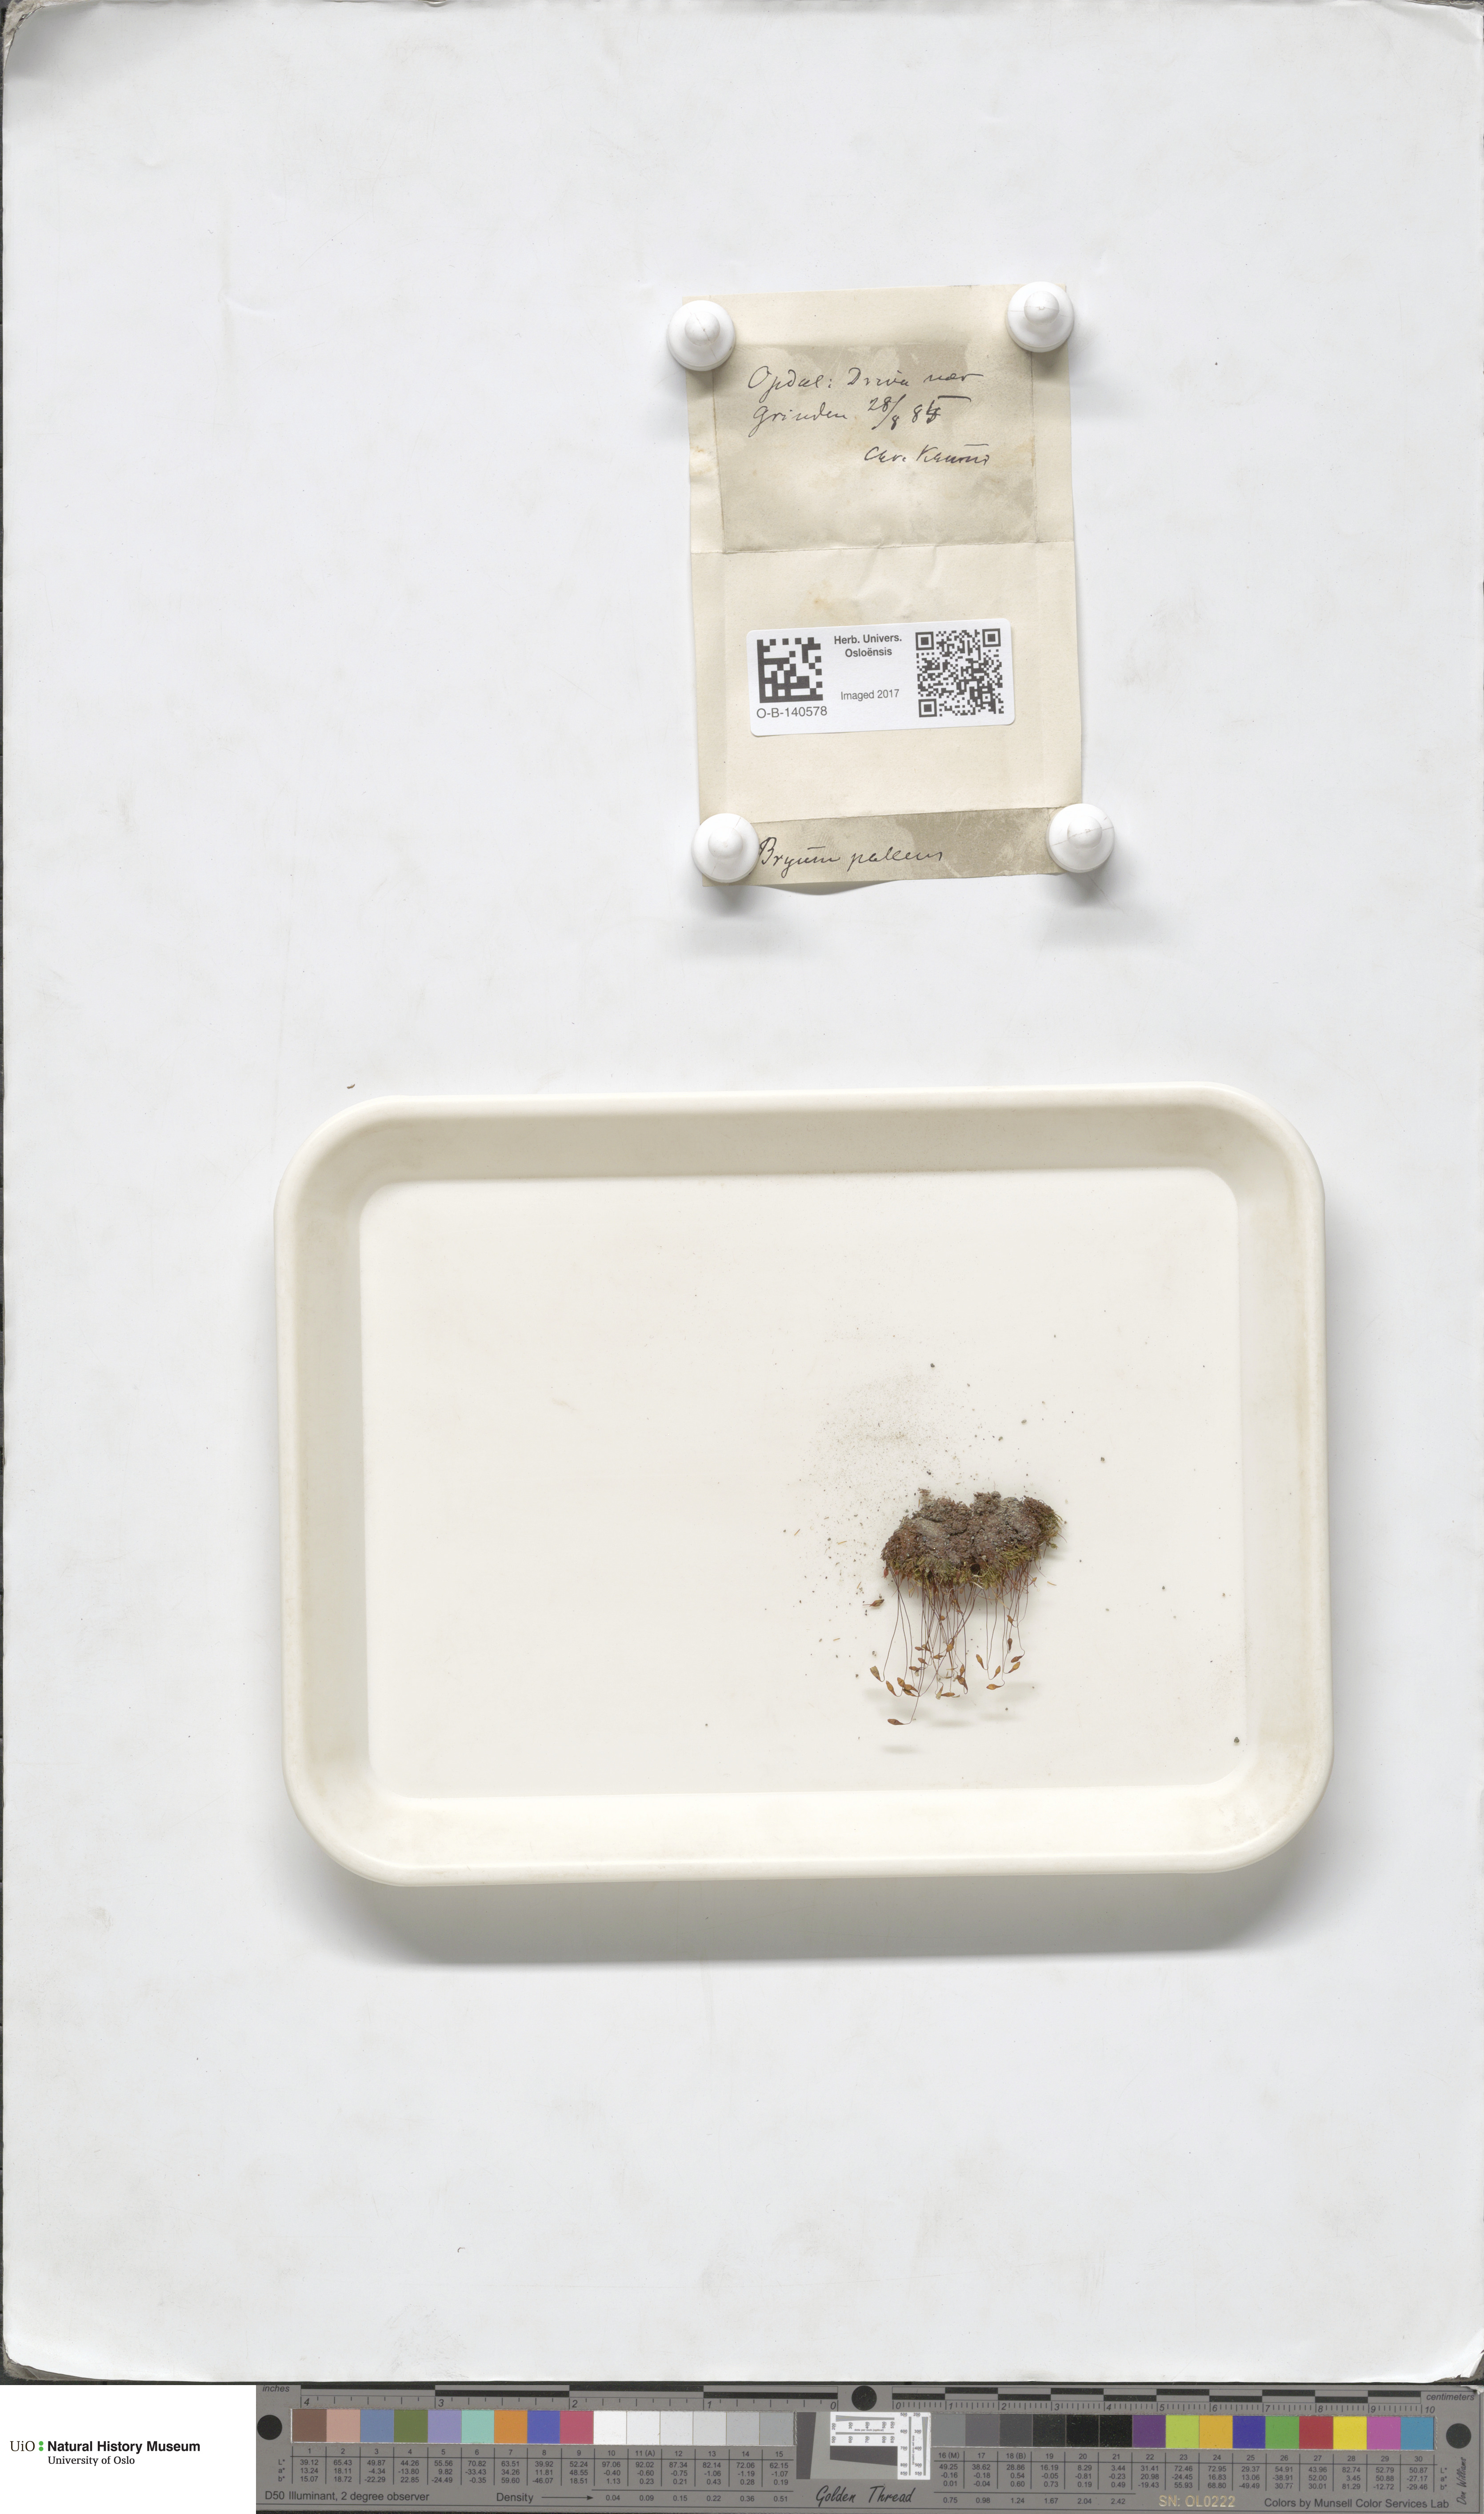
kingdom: Plantae
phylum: Bryophyta
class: Bryopsida
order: Bryales
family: Bryaceae
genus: Ptychostomum
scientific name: Ptychostomum pallens
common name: Pale thread-moss
